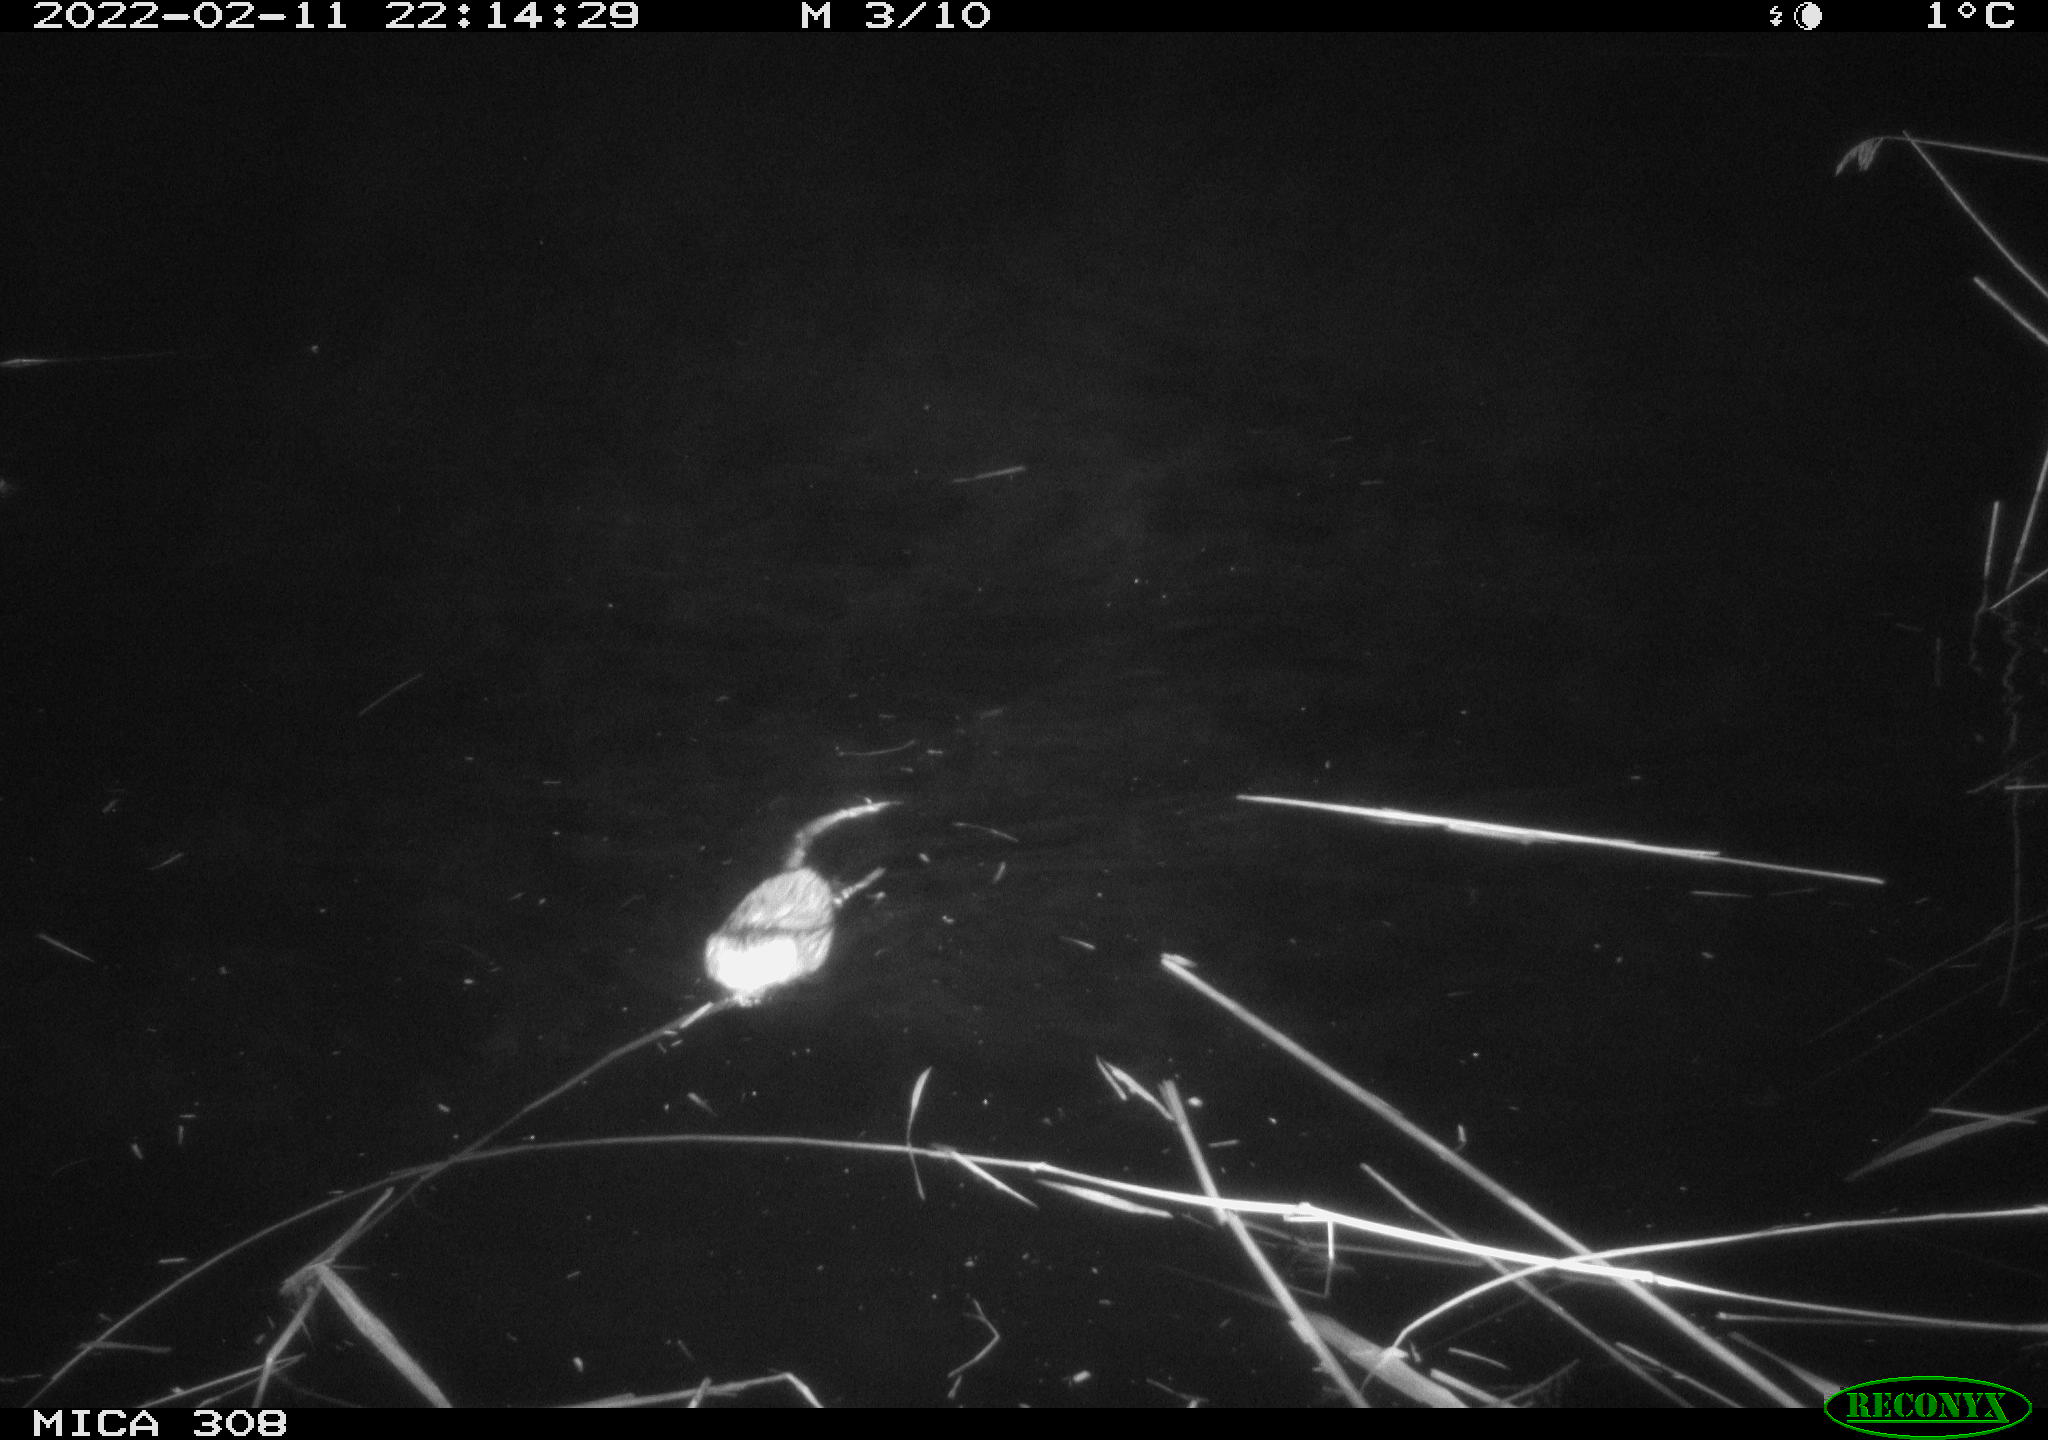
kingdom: Animalia
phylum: Chordata
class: Mammalia
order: Rodentia
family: Cricetidae
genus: Ondatra
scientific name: Ondatra zibethicus
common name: Muskrat
